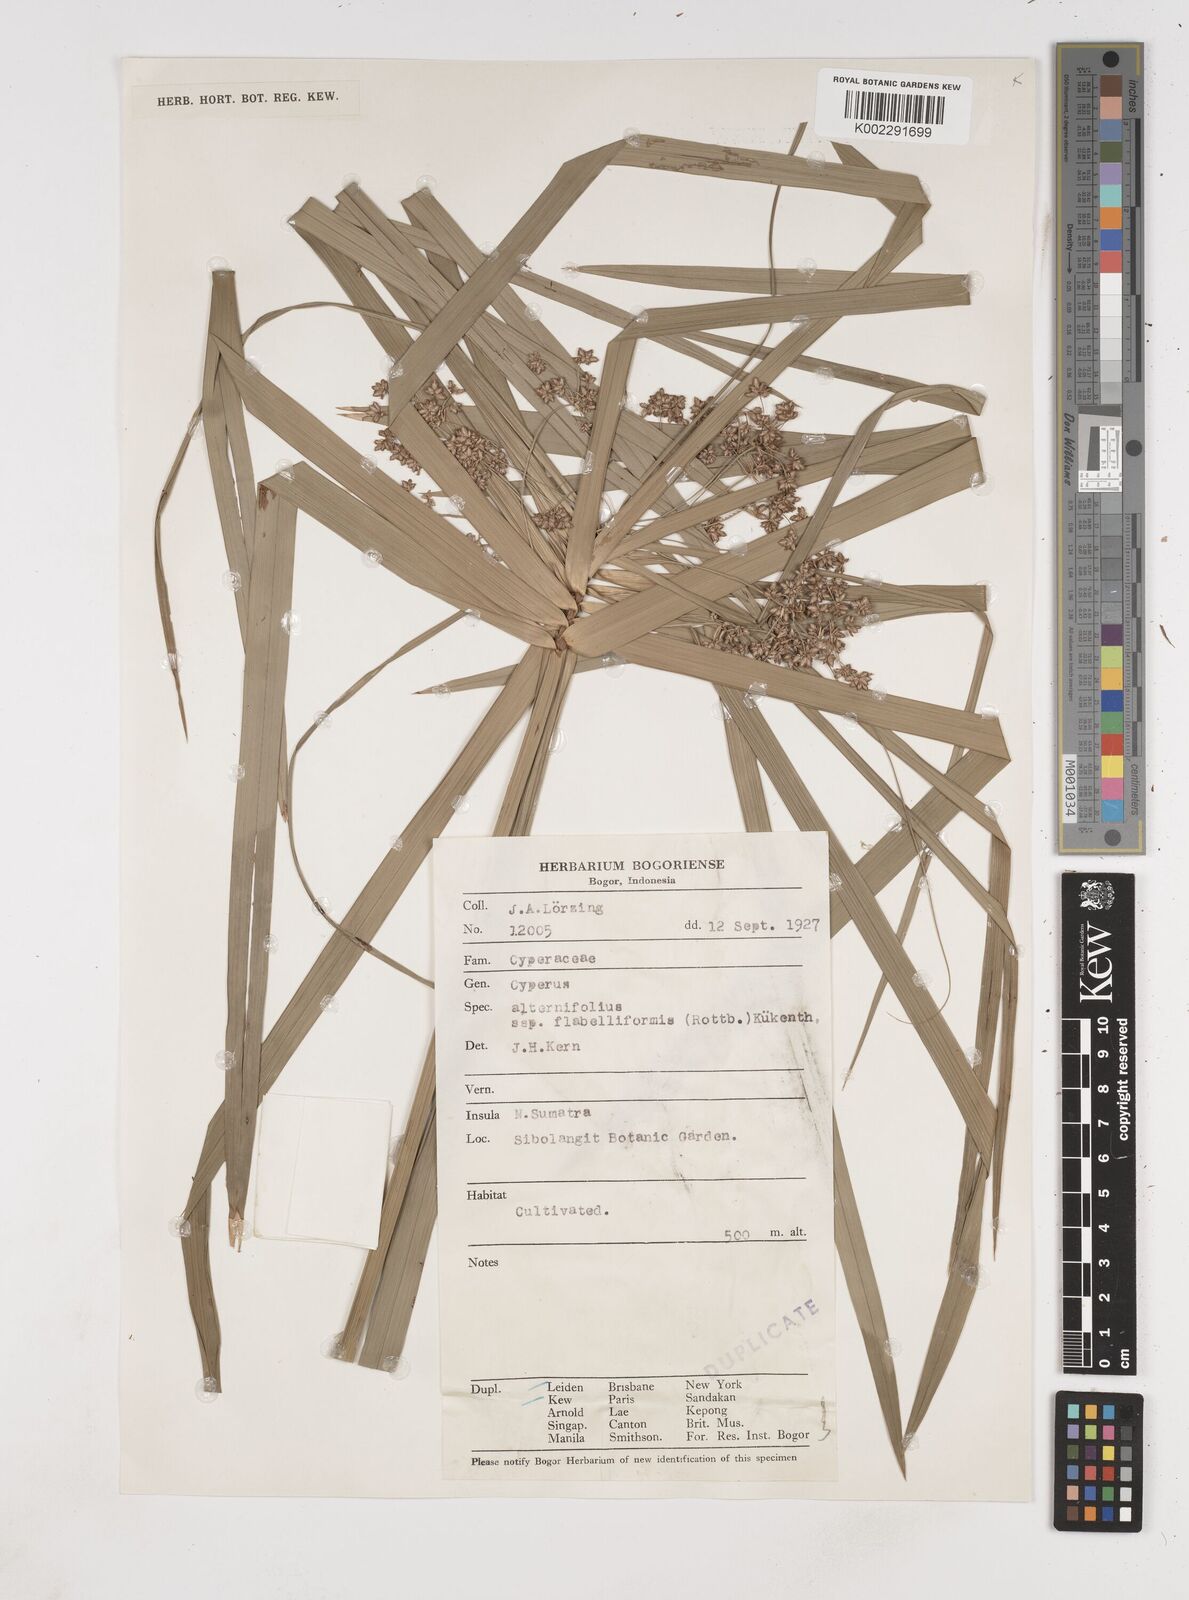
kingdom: Plantae
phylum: Tracheophyta
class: Liliopsida
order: Poales
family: Cyperaceae
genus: Cyperus
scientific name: Cyperus alternifolius
